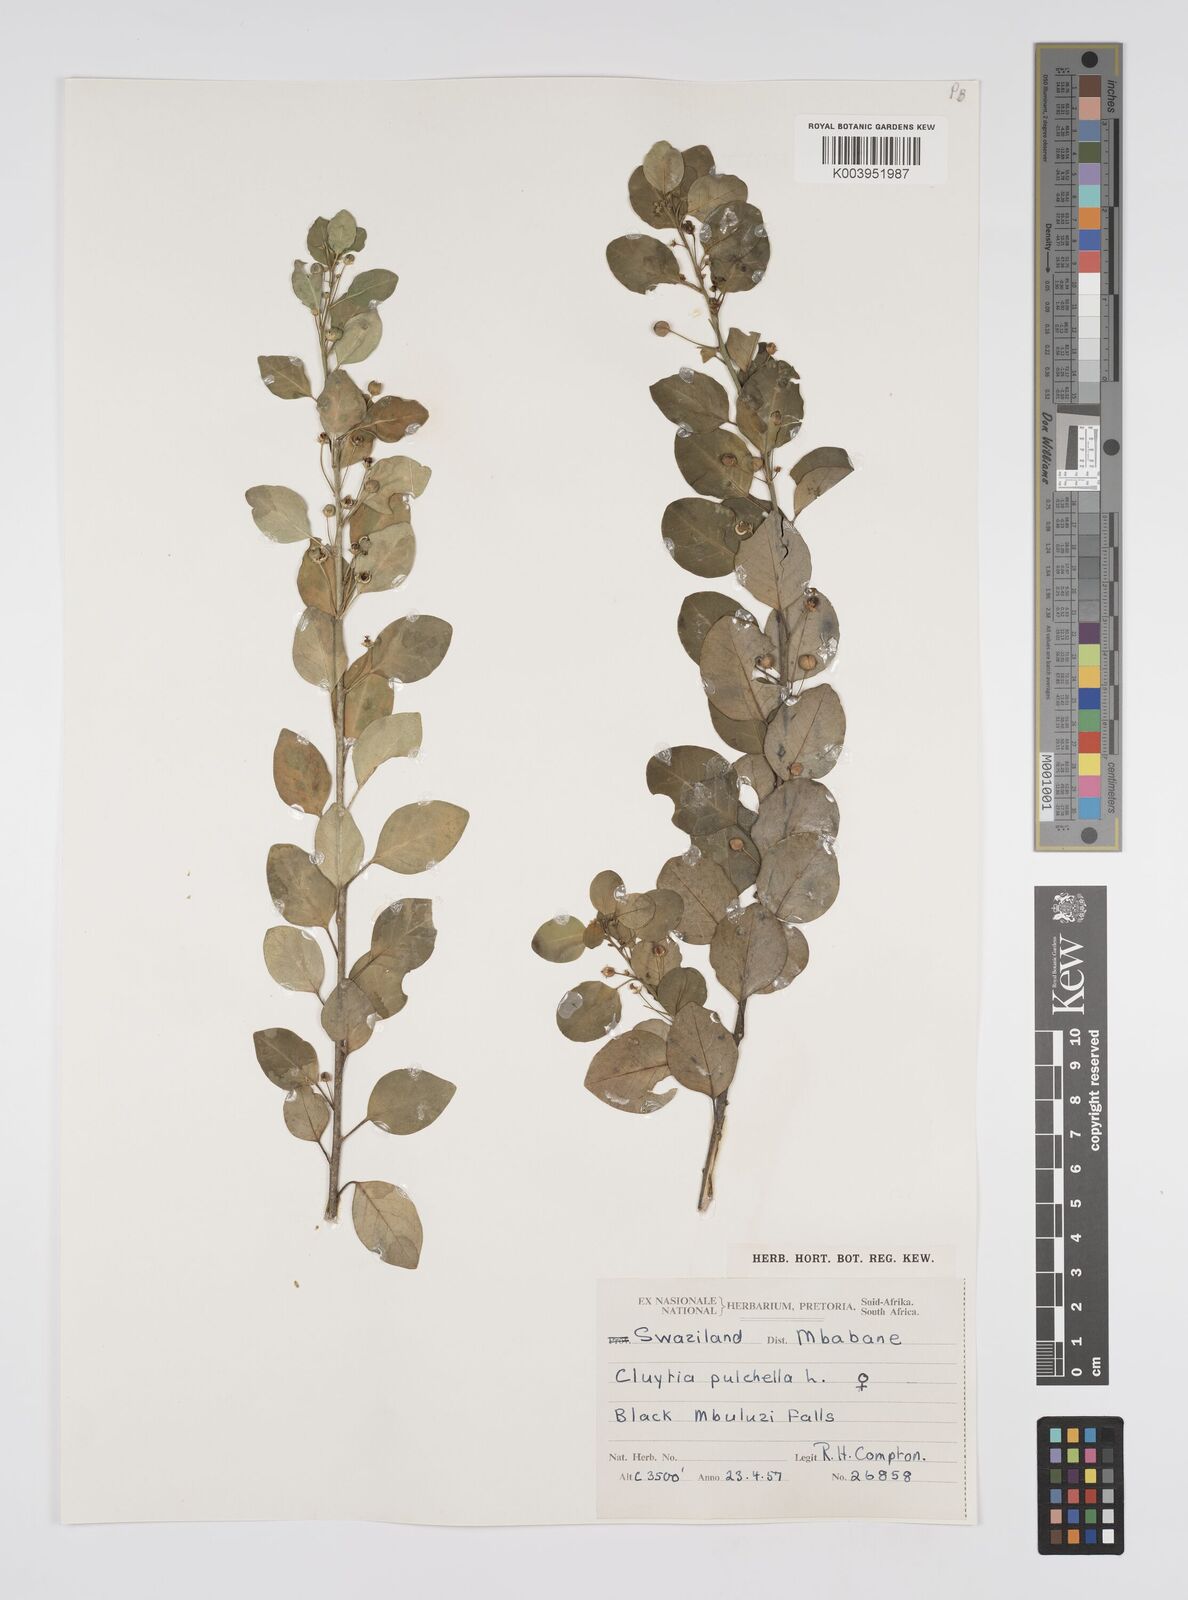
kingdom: Plantae
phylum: Tracheophyta
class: Magnoliopsida
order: Malpighiales
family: Peraceae
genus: Clutia
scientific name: Clutia pulchella
